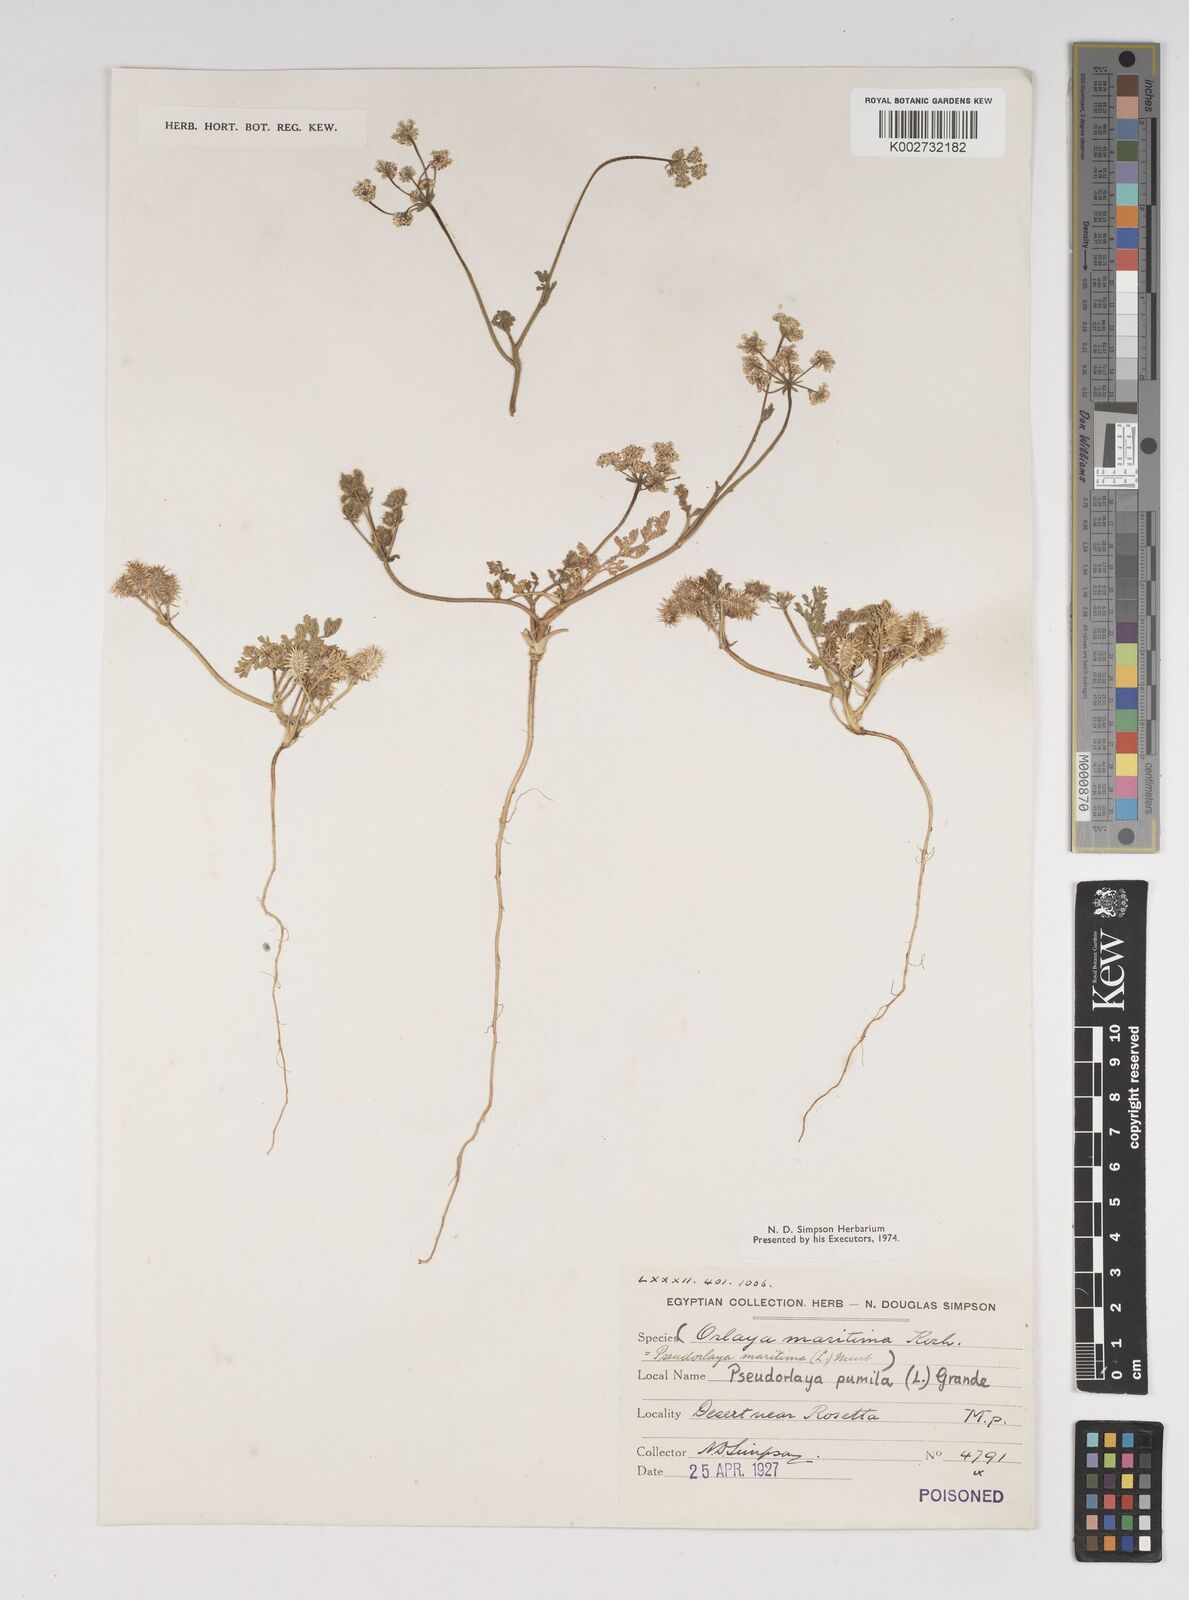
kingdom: Plantae
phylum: Tracheophyta
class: Magnoliopsida
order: Apiales
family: Apiaceae
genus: Daucus
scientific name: Daucus pumilus
